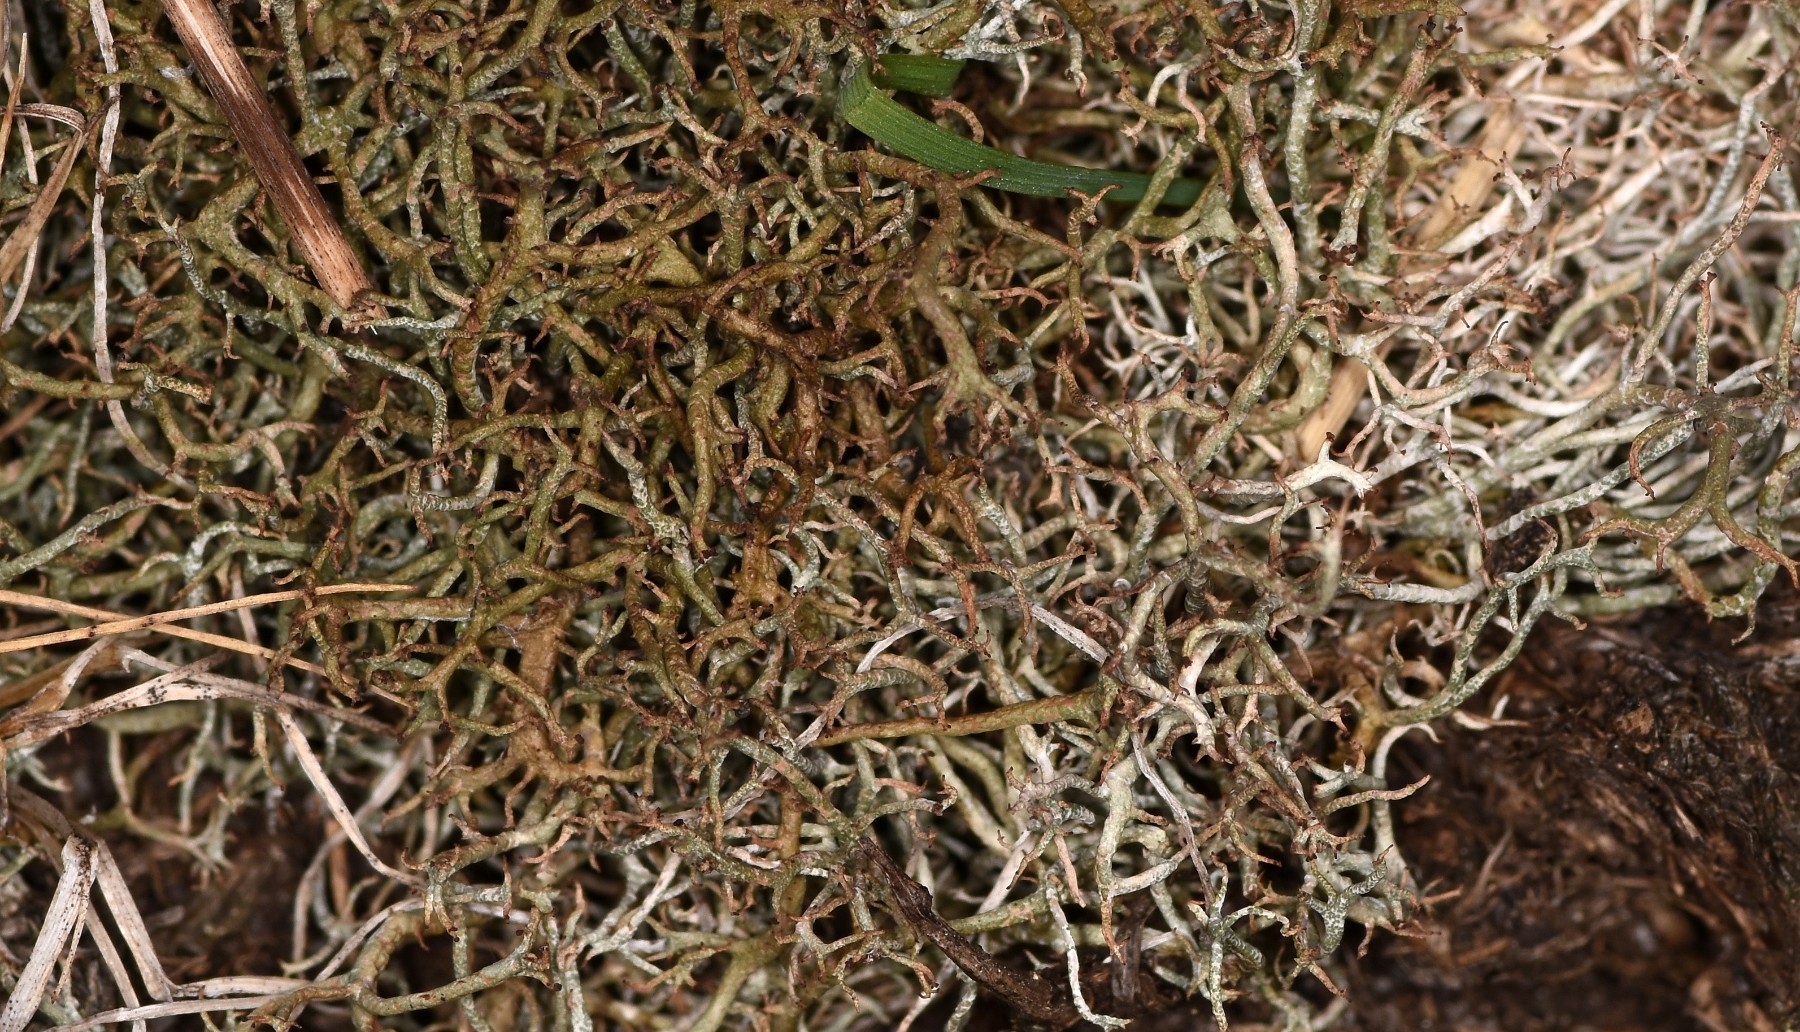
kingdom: Fungi
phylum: Ascomycota
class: Lecanoromycetes
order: Lecanorales
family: Cladoniaceae
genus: Cladonia
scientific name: Cladonia furcata
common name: kløftet bægerlav
